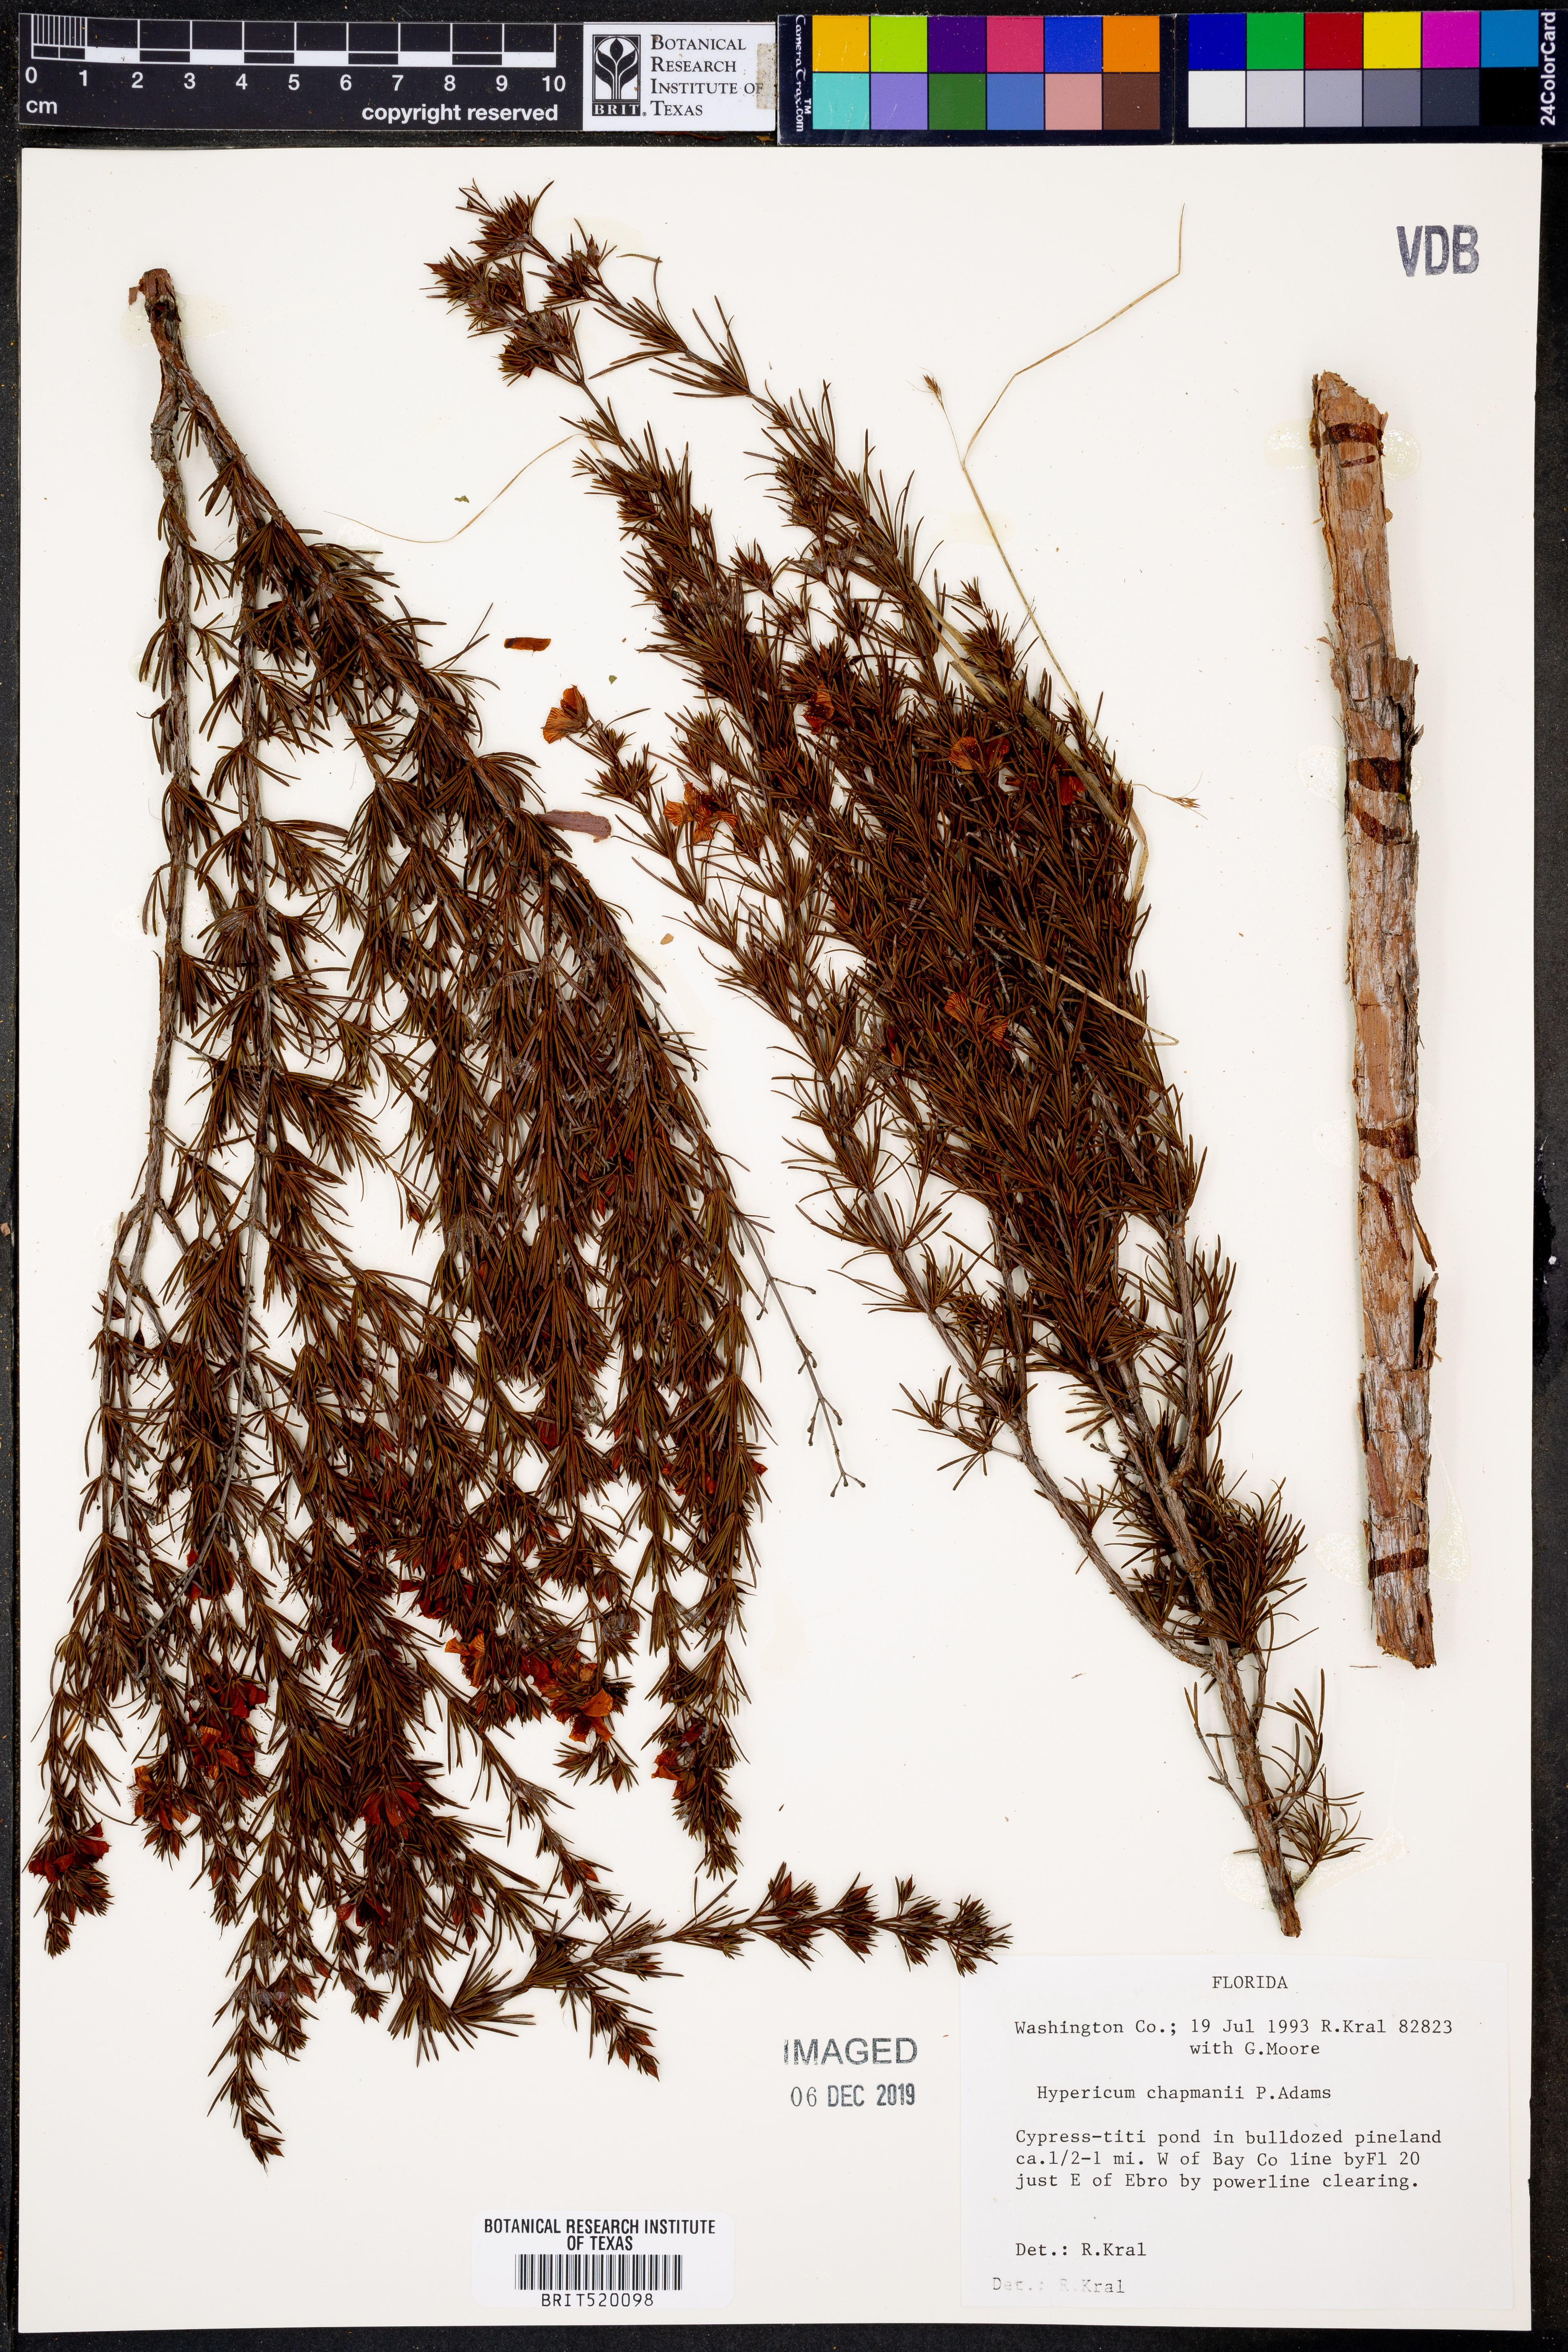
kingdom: Plantae
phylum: Tracheophyta
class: Magnoliopsida
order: Malpighiales
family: Hypericaceae
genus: Hypericum
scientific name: Hypericum chapmanii
